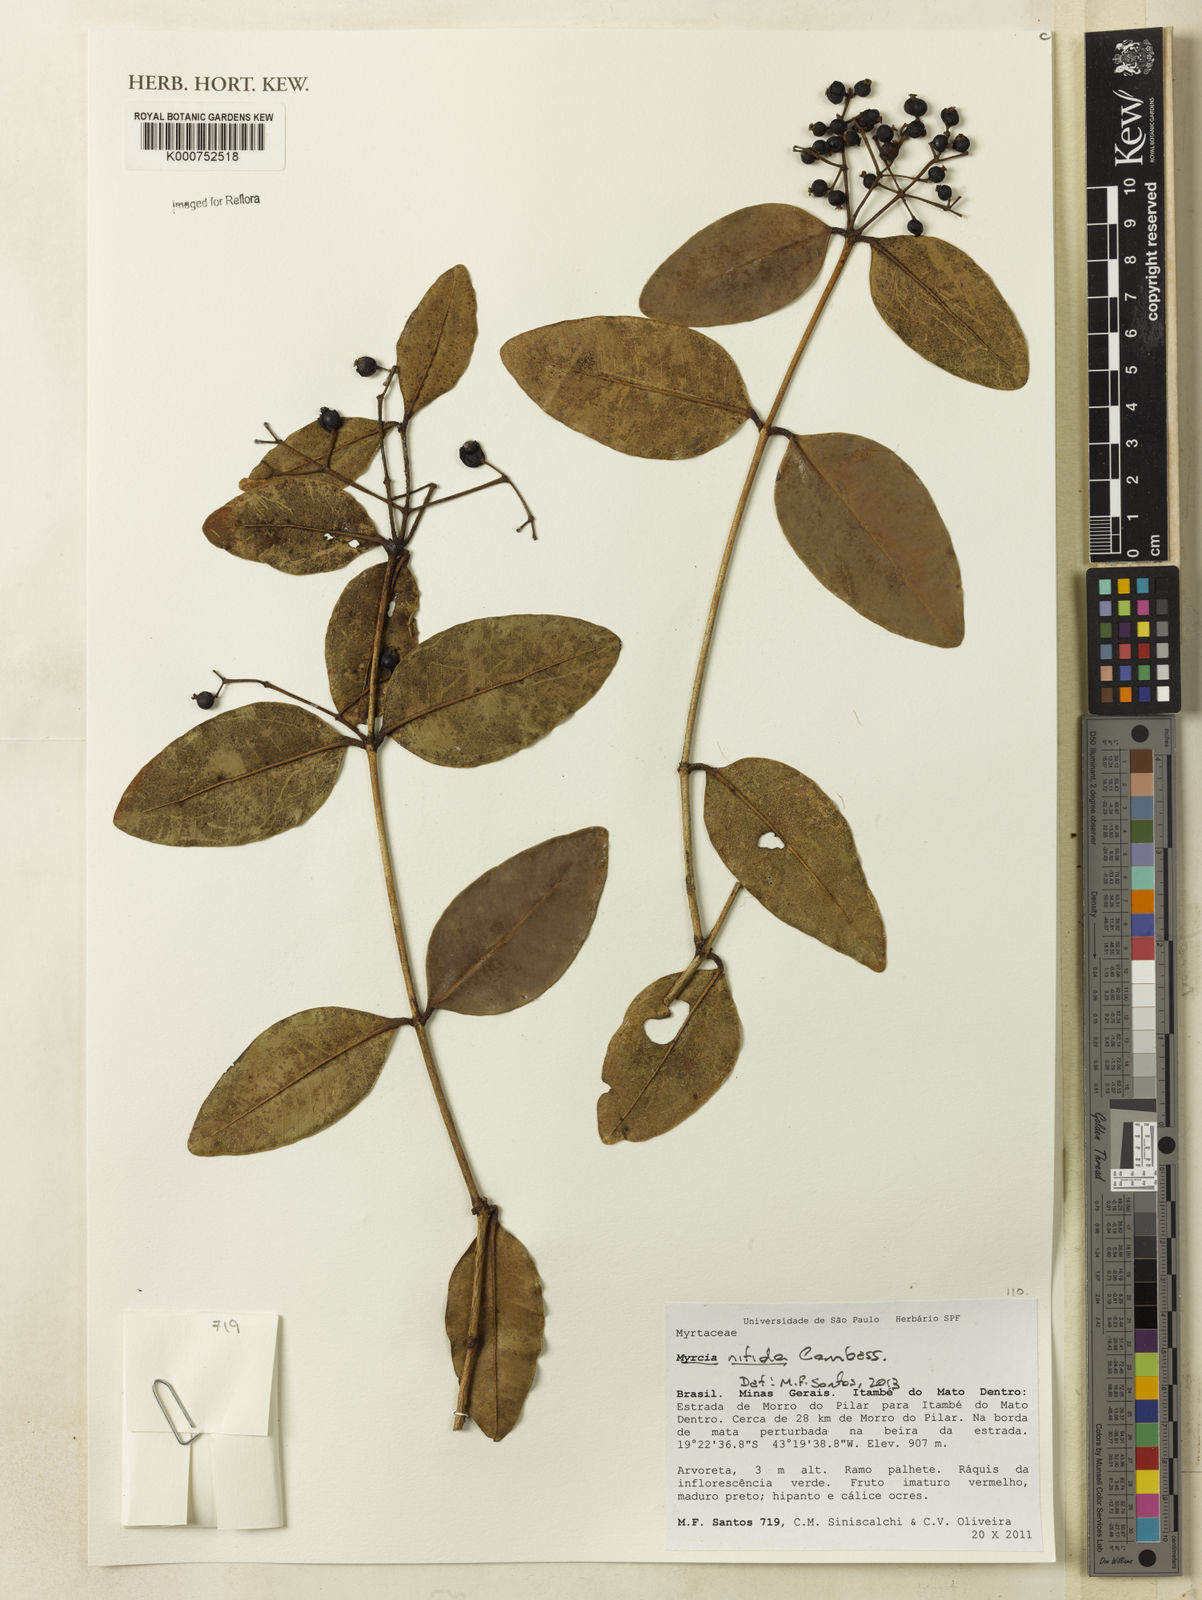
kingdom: Plantae
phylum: Tracheophyta
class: Magnoliopsida
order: Myrtales
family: Myrtaceae
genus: Myrcia
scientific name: Myrcia nitida
